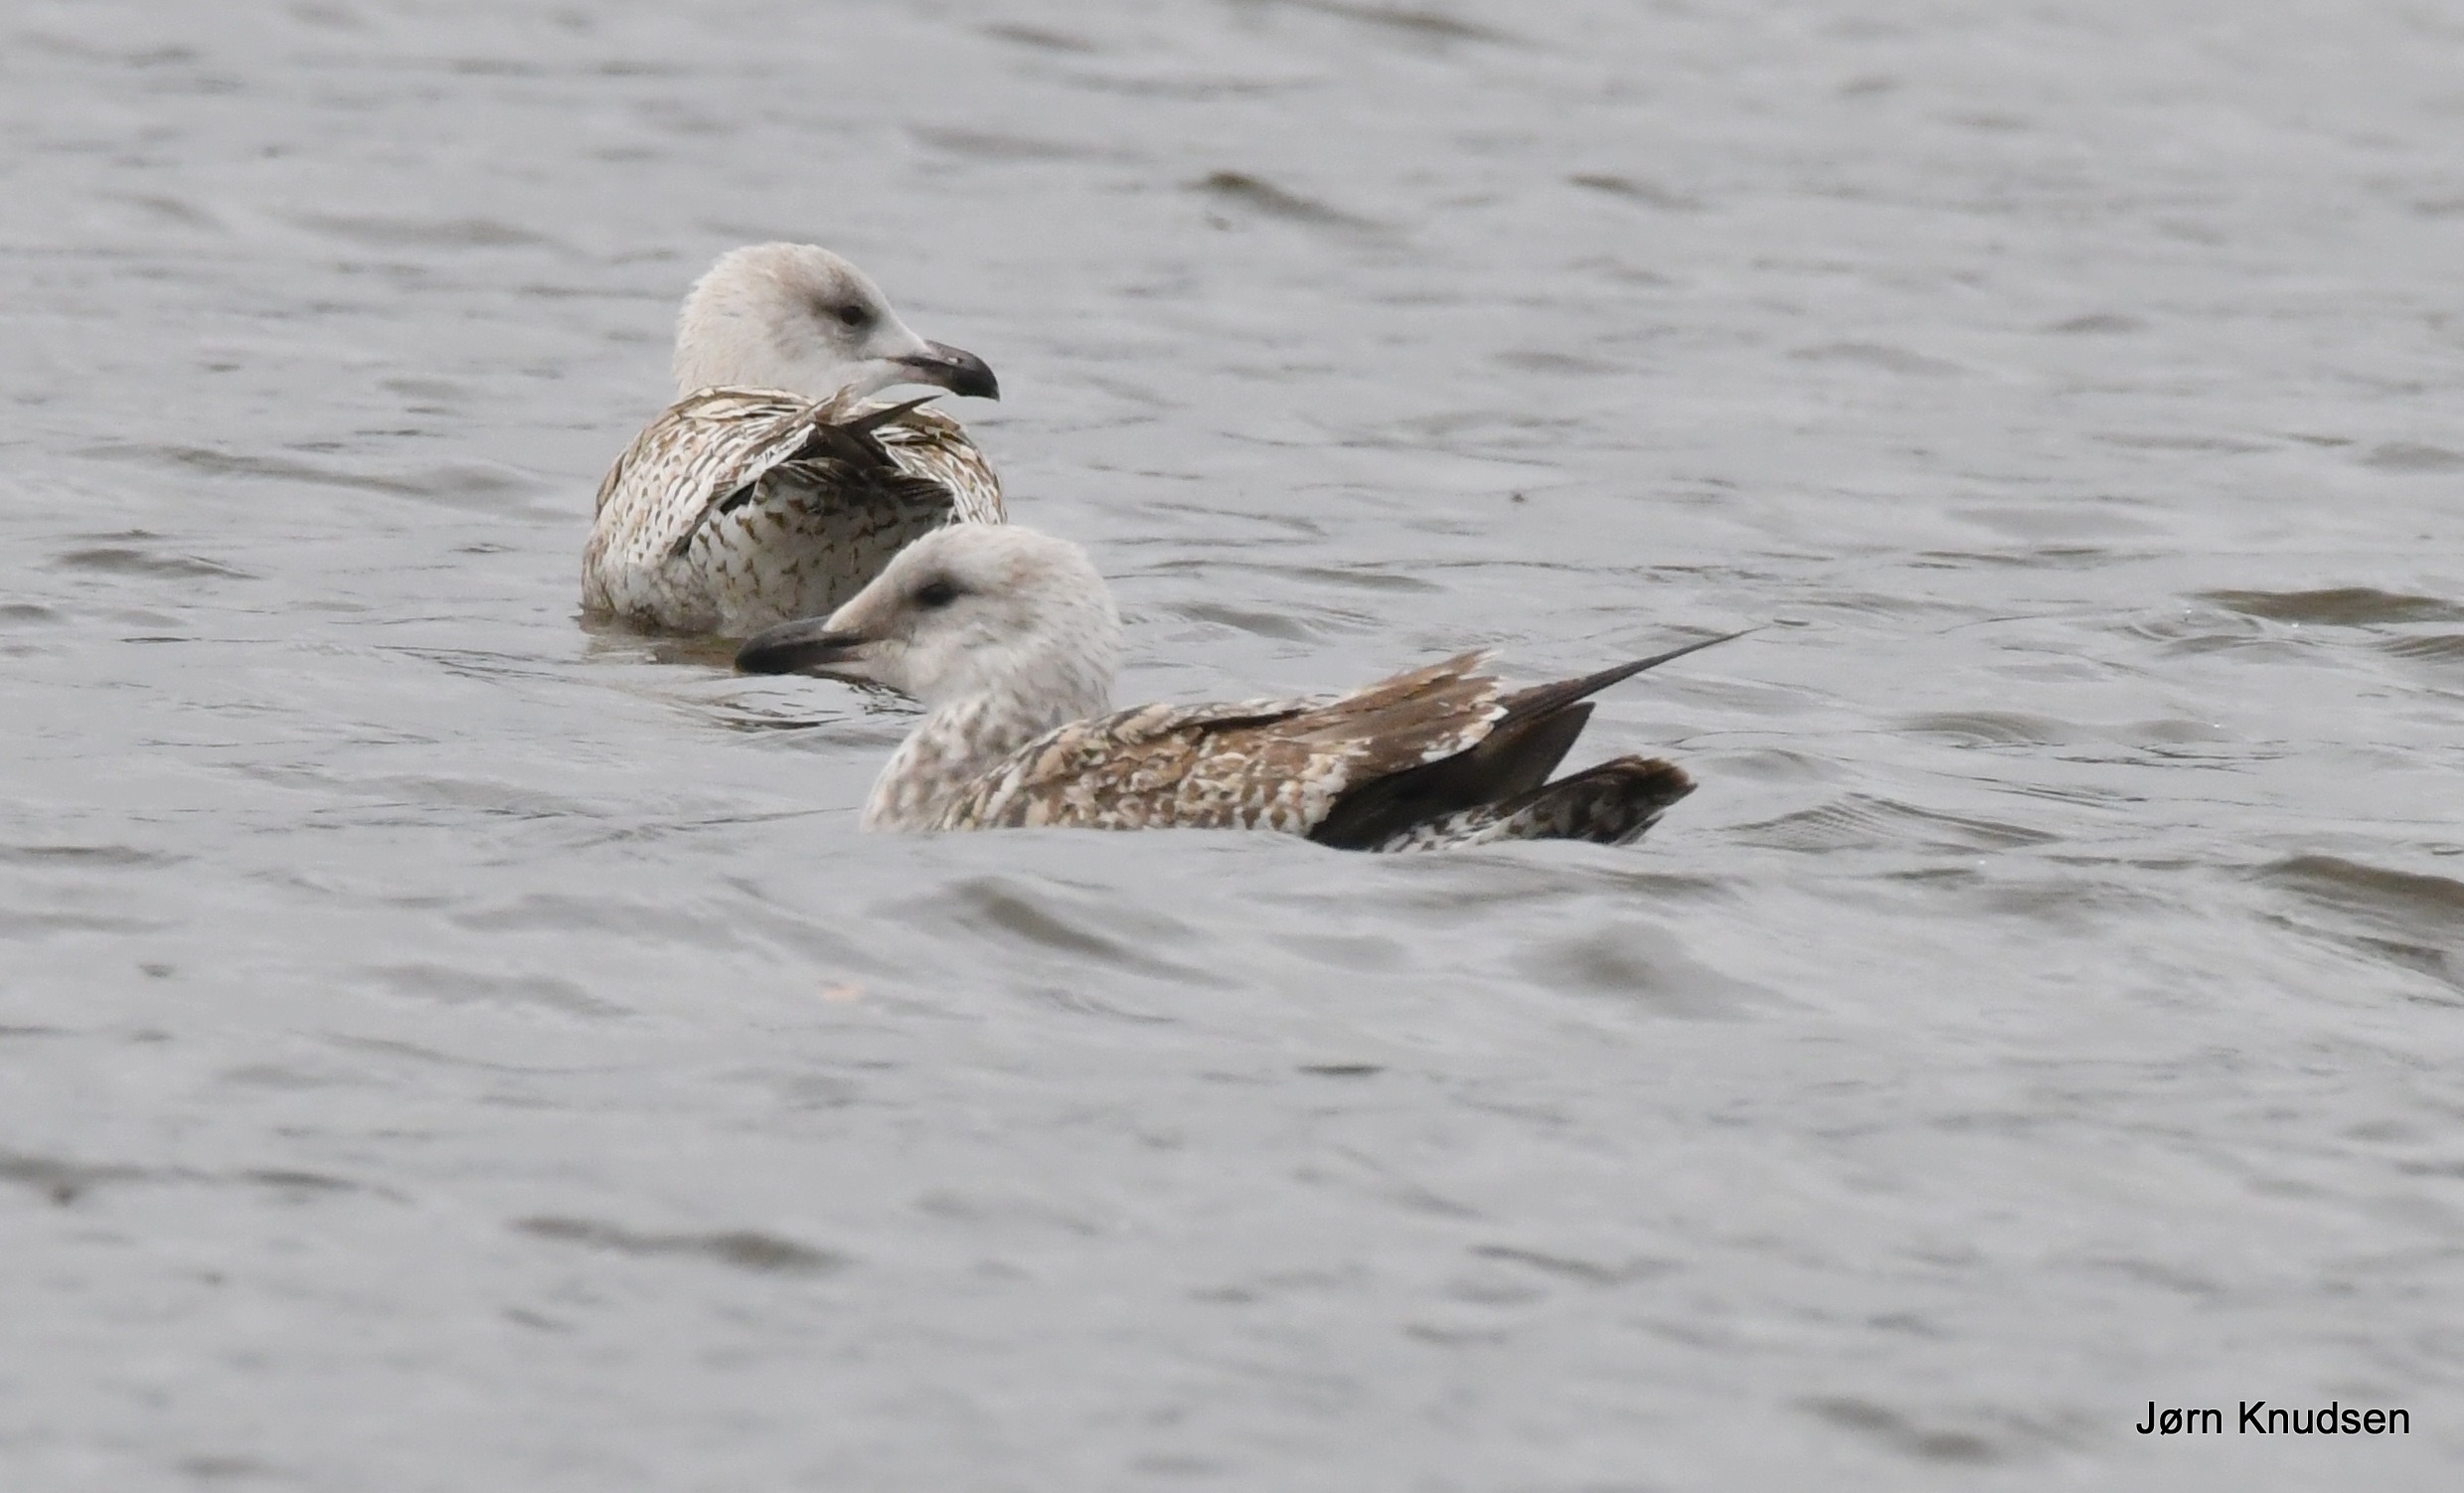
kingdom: Animalia
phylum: Chordata
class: Aves
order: Charadriiformes
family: Laridae
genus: Larus
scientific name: Larus argentatus
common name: Sølvmåge
